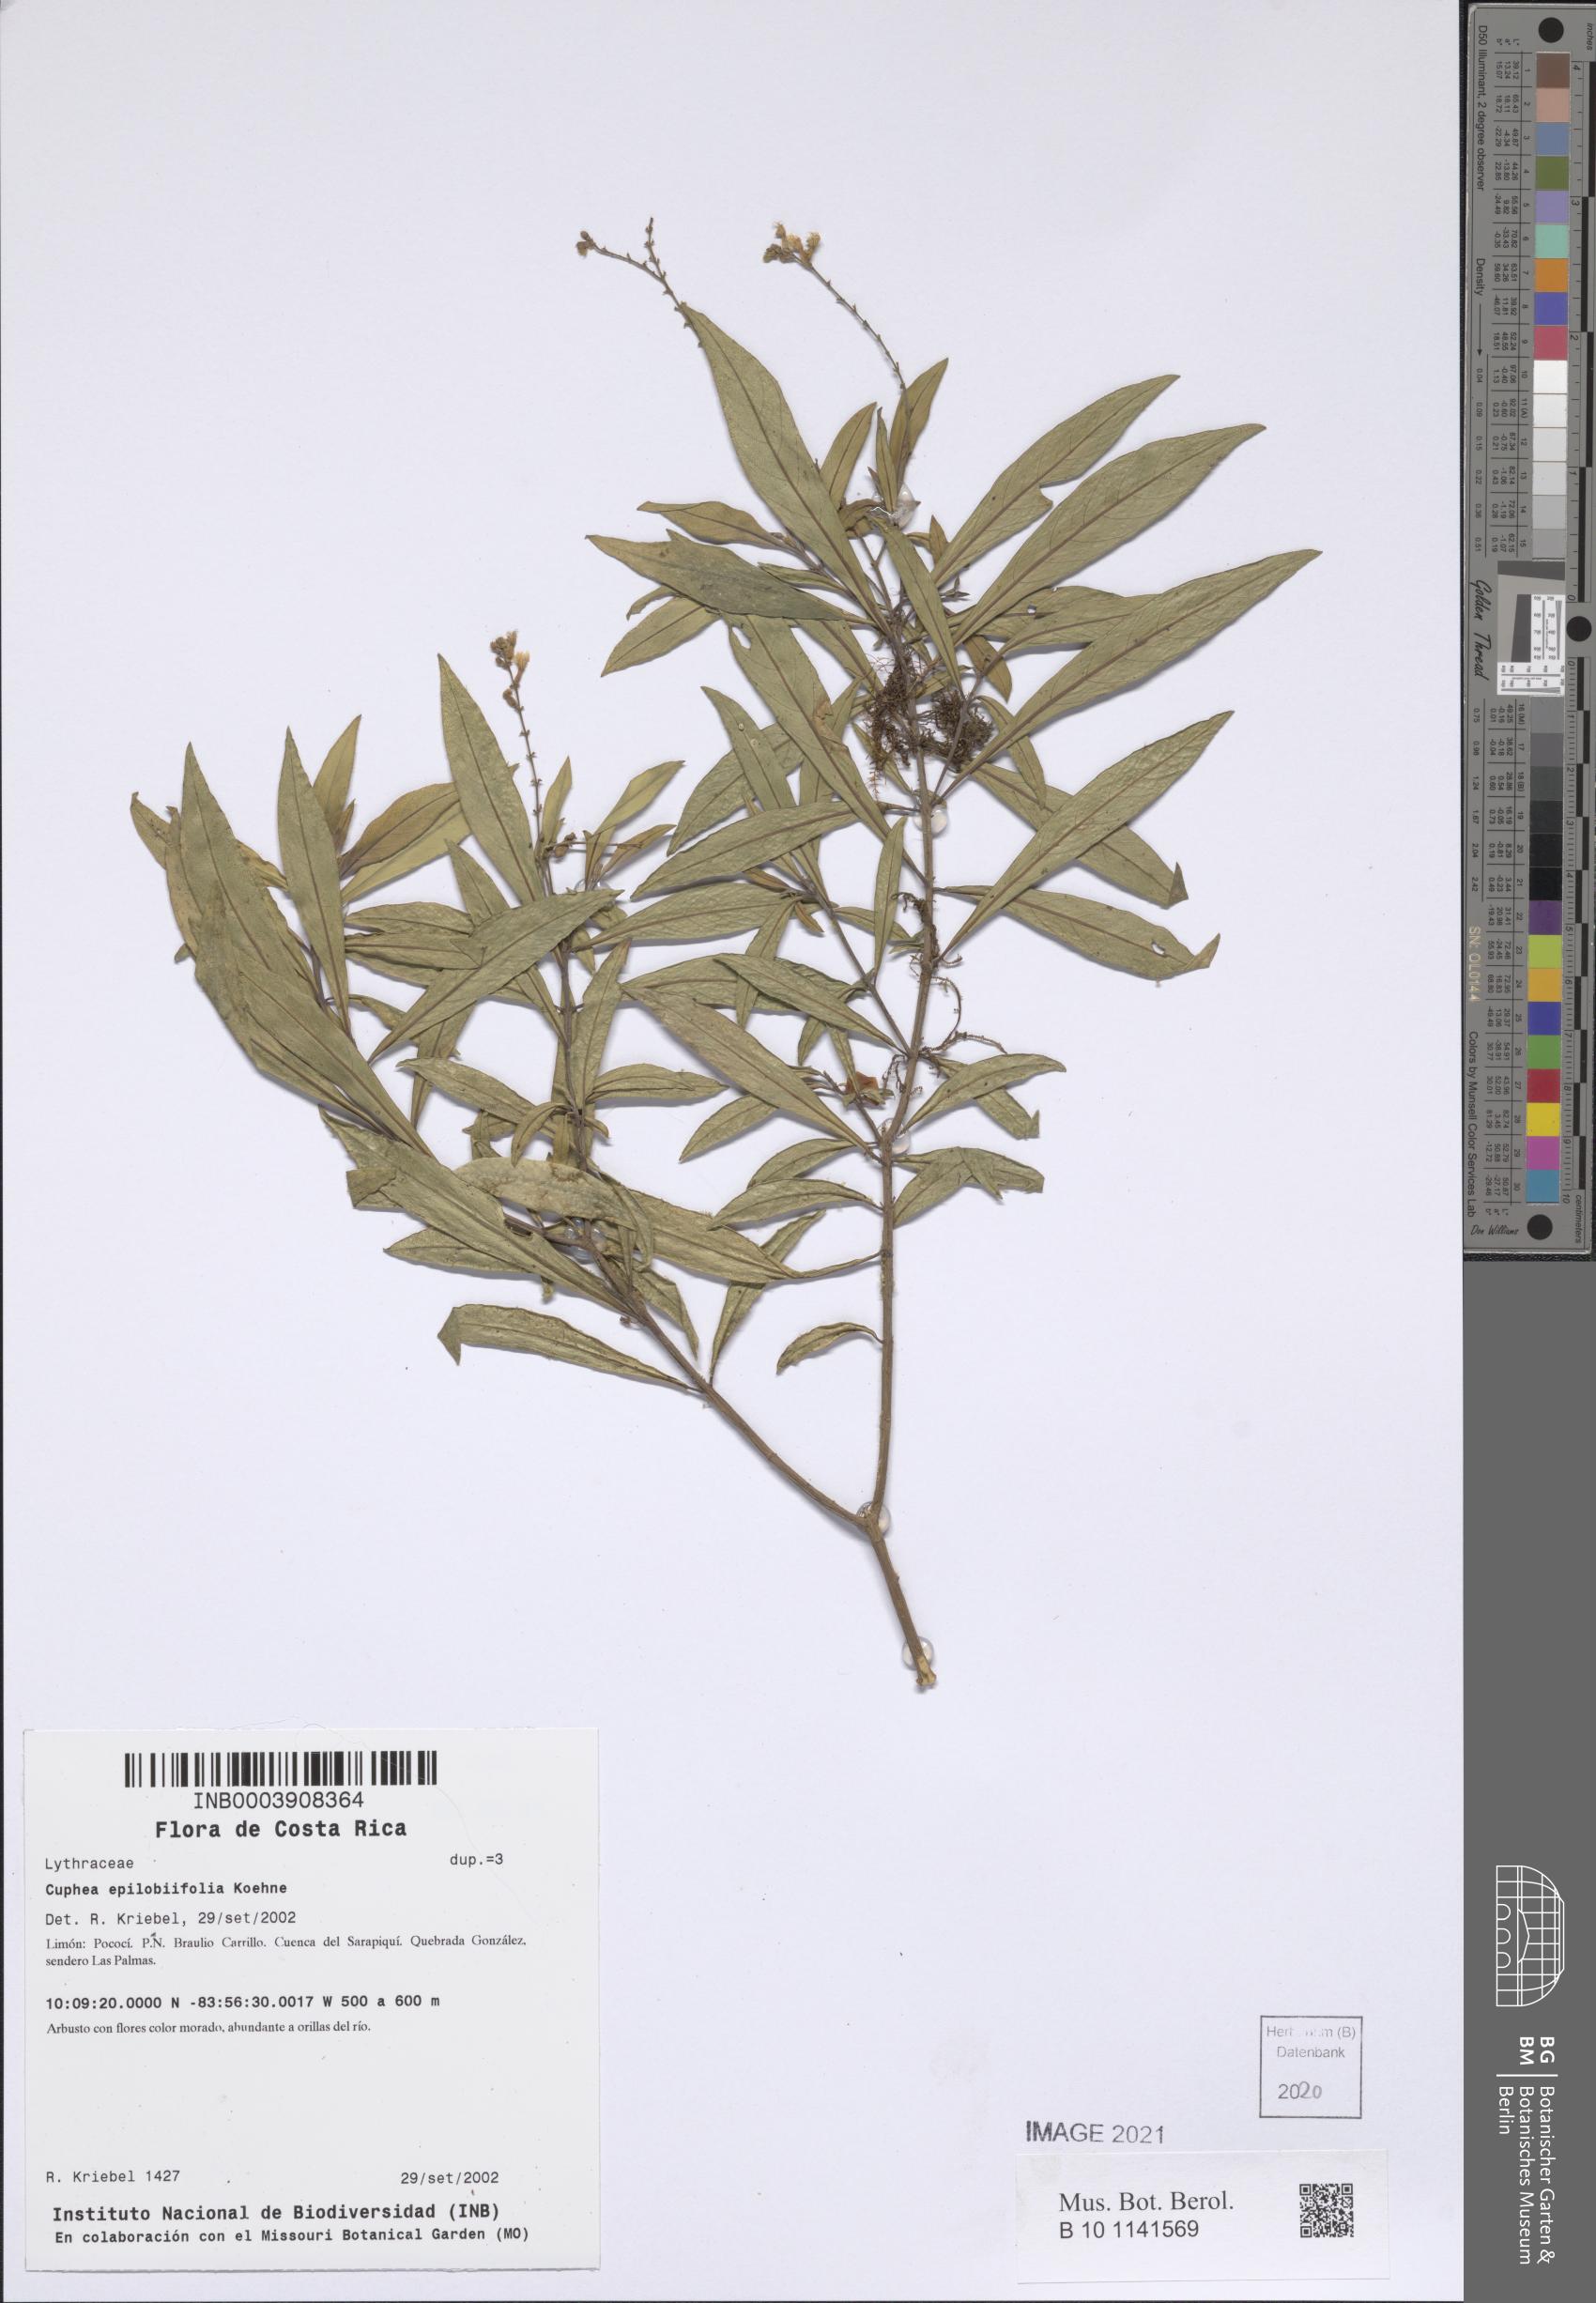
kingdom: Plantae
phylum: Tracheophyta
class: Magnoliopsida
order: Myrtales
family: Lythraceae
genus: Cuphea
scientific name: Cuphea epilobiifolia
